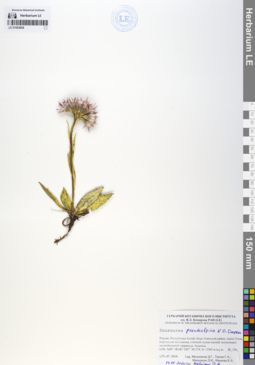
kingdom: Plantae
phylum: Tracheophyta
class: Magnoliopsida
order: Asterales
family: Asteraceae
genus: Saussurea
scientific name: Saussurea pseudoalpina
